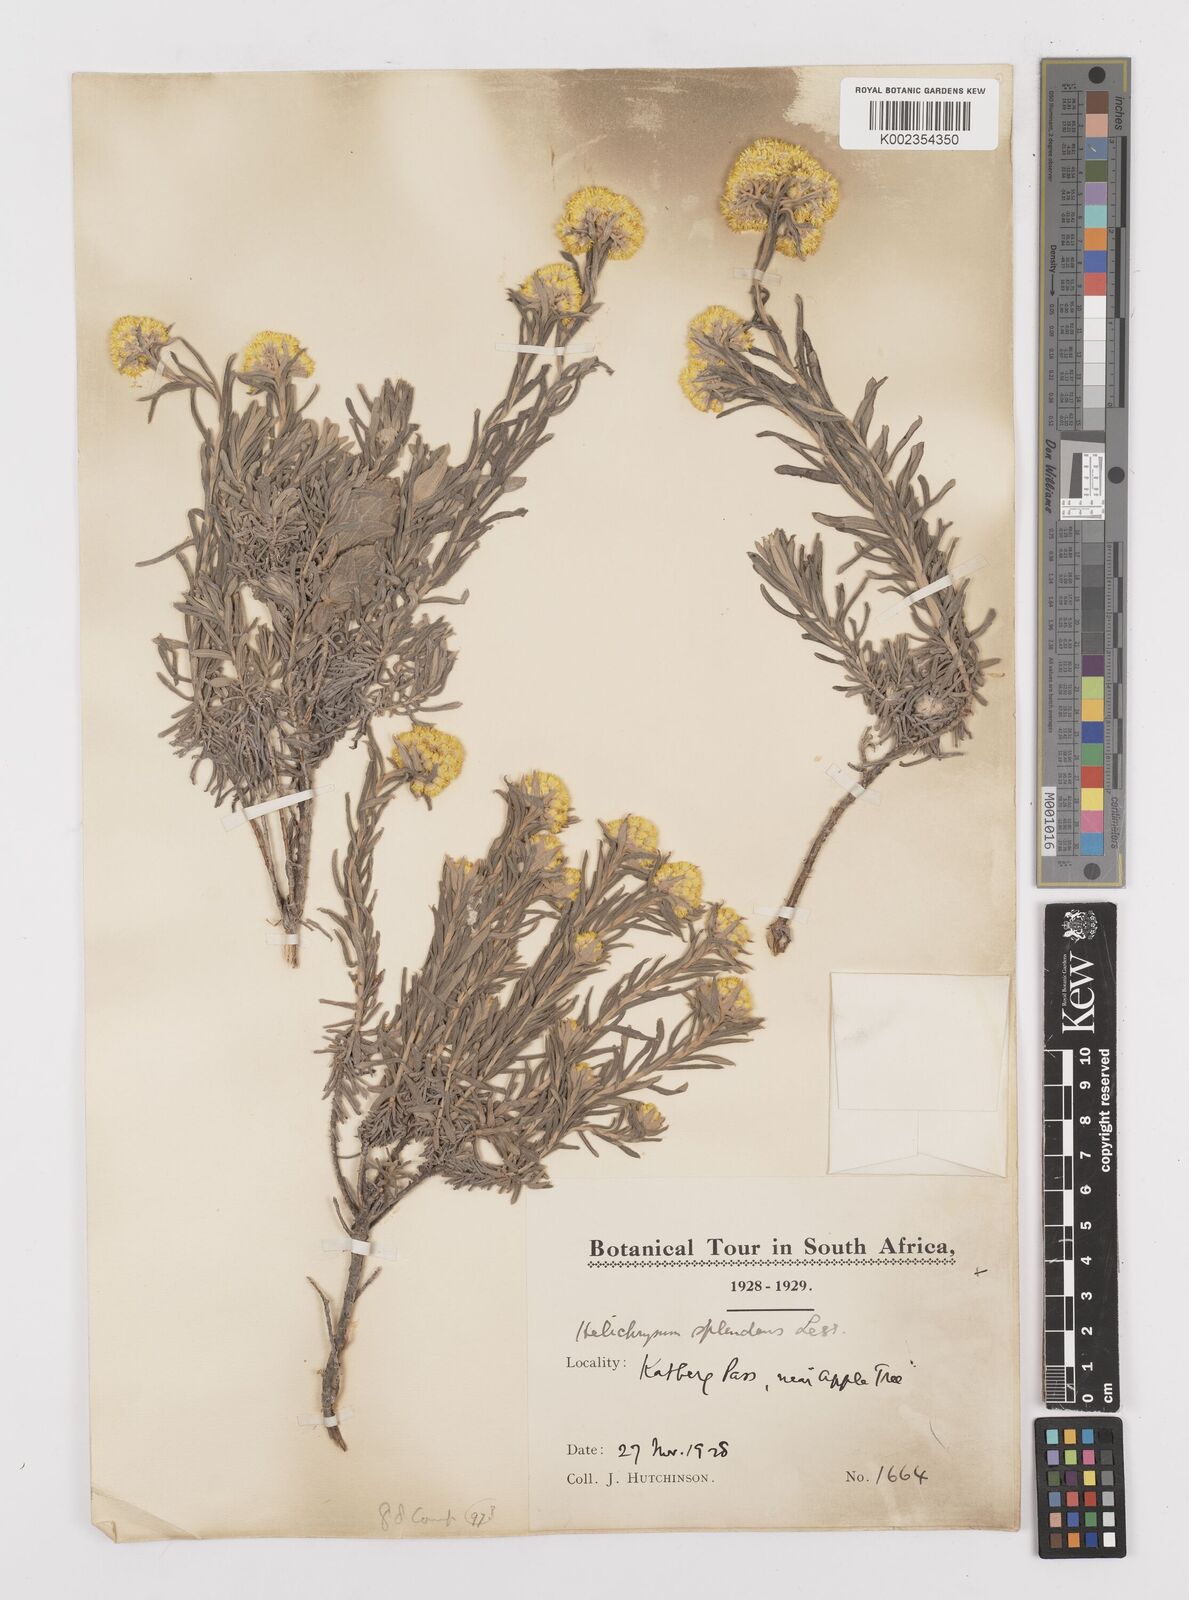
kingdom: Plantae
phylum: Tracheophyta
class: Magnoliopsida
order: Asterales
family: Asteraceae
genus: Helichrysum
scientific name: Helichrysum splendidum
